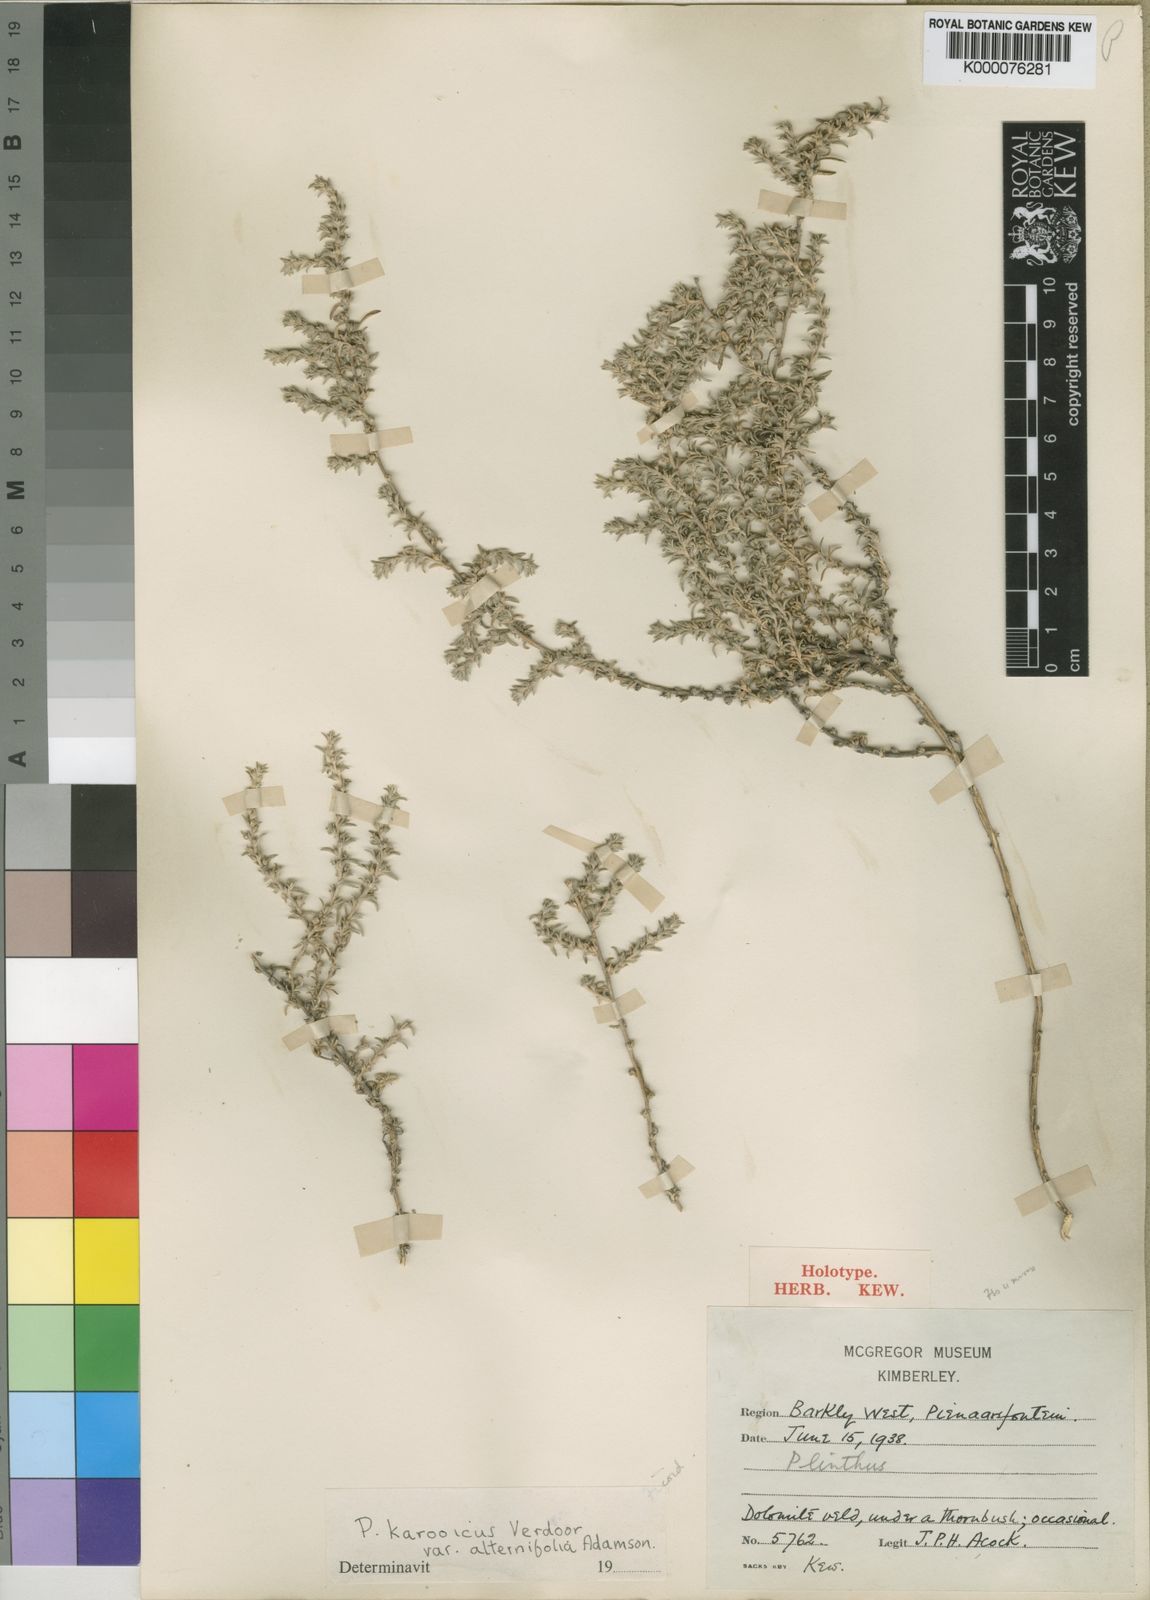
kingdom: Plantae
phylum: Tracheophyta
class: Magnoliopsida
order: Caryophyllales
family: Aizoaceae
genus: Aizoon
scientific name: Aizoon plinthoides
